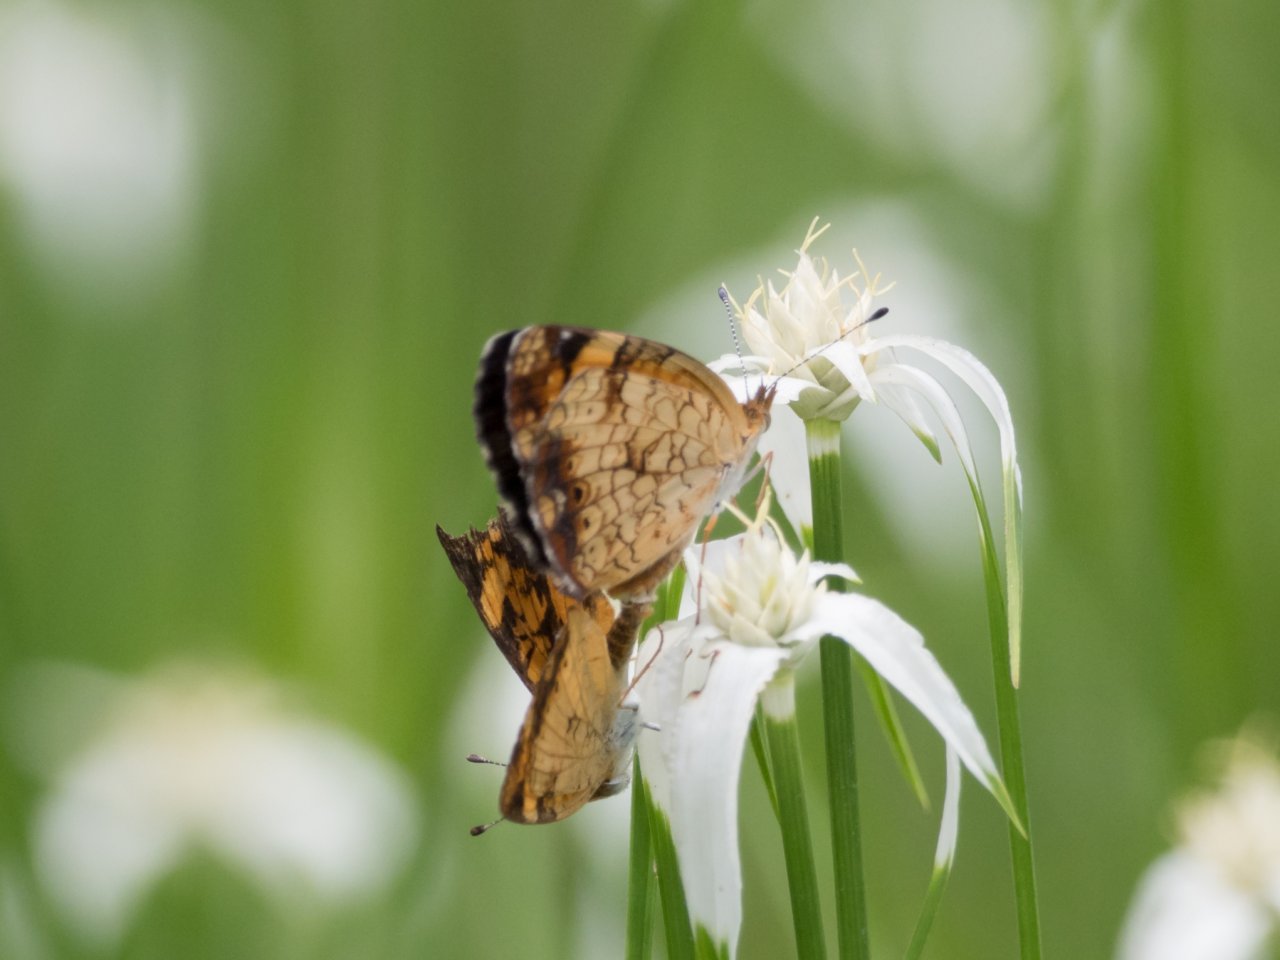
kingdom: Animalia
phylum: Arthropoda
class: Insecta
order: Lepidoptera
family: Nymphalidae
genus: Phyciodes
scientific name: Phyciodes tharos
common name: Pearl Crescent
